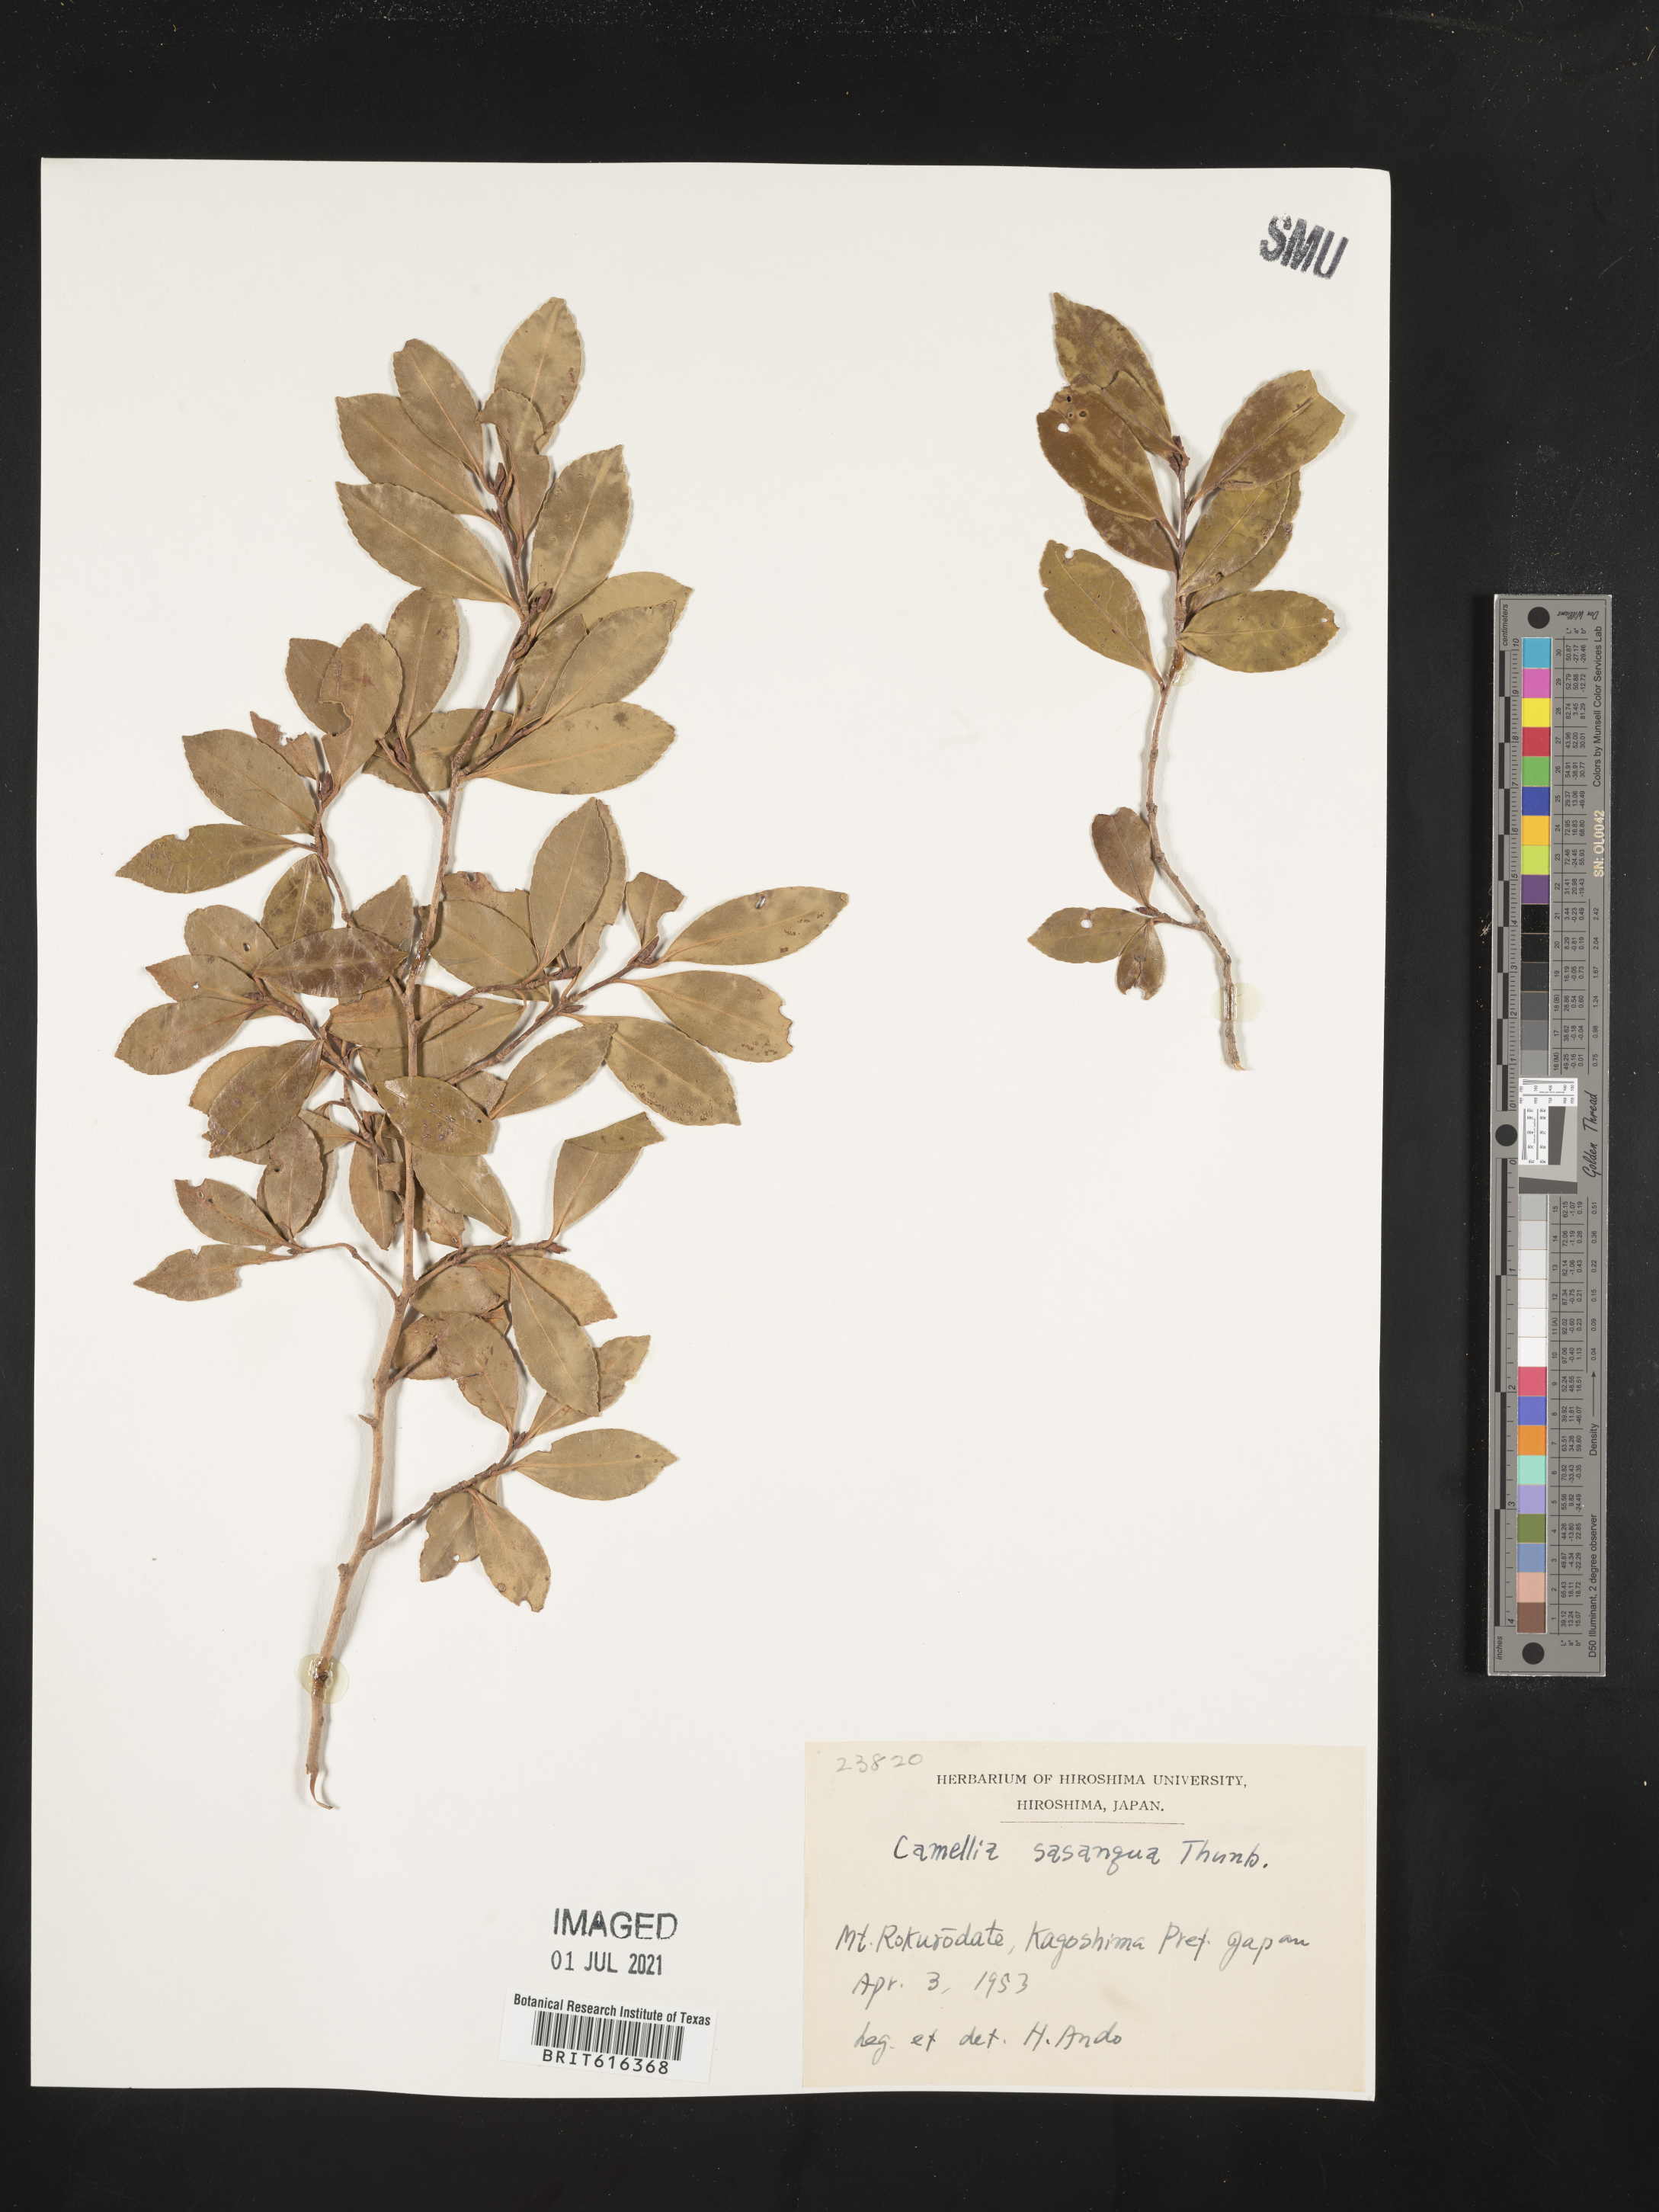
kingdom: Plantae
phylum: Tracheophyta
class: Magnoliopsida
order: Ericales
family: Theaceae
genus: Camellia
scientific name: Camellia sasanqua
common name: Sasanqua camellia
